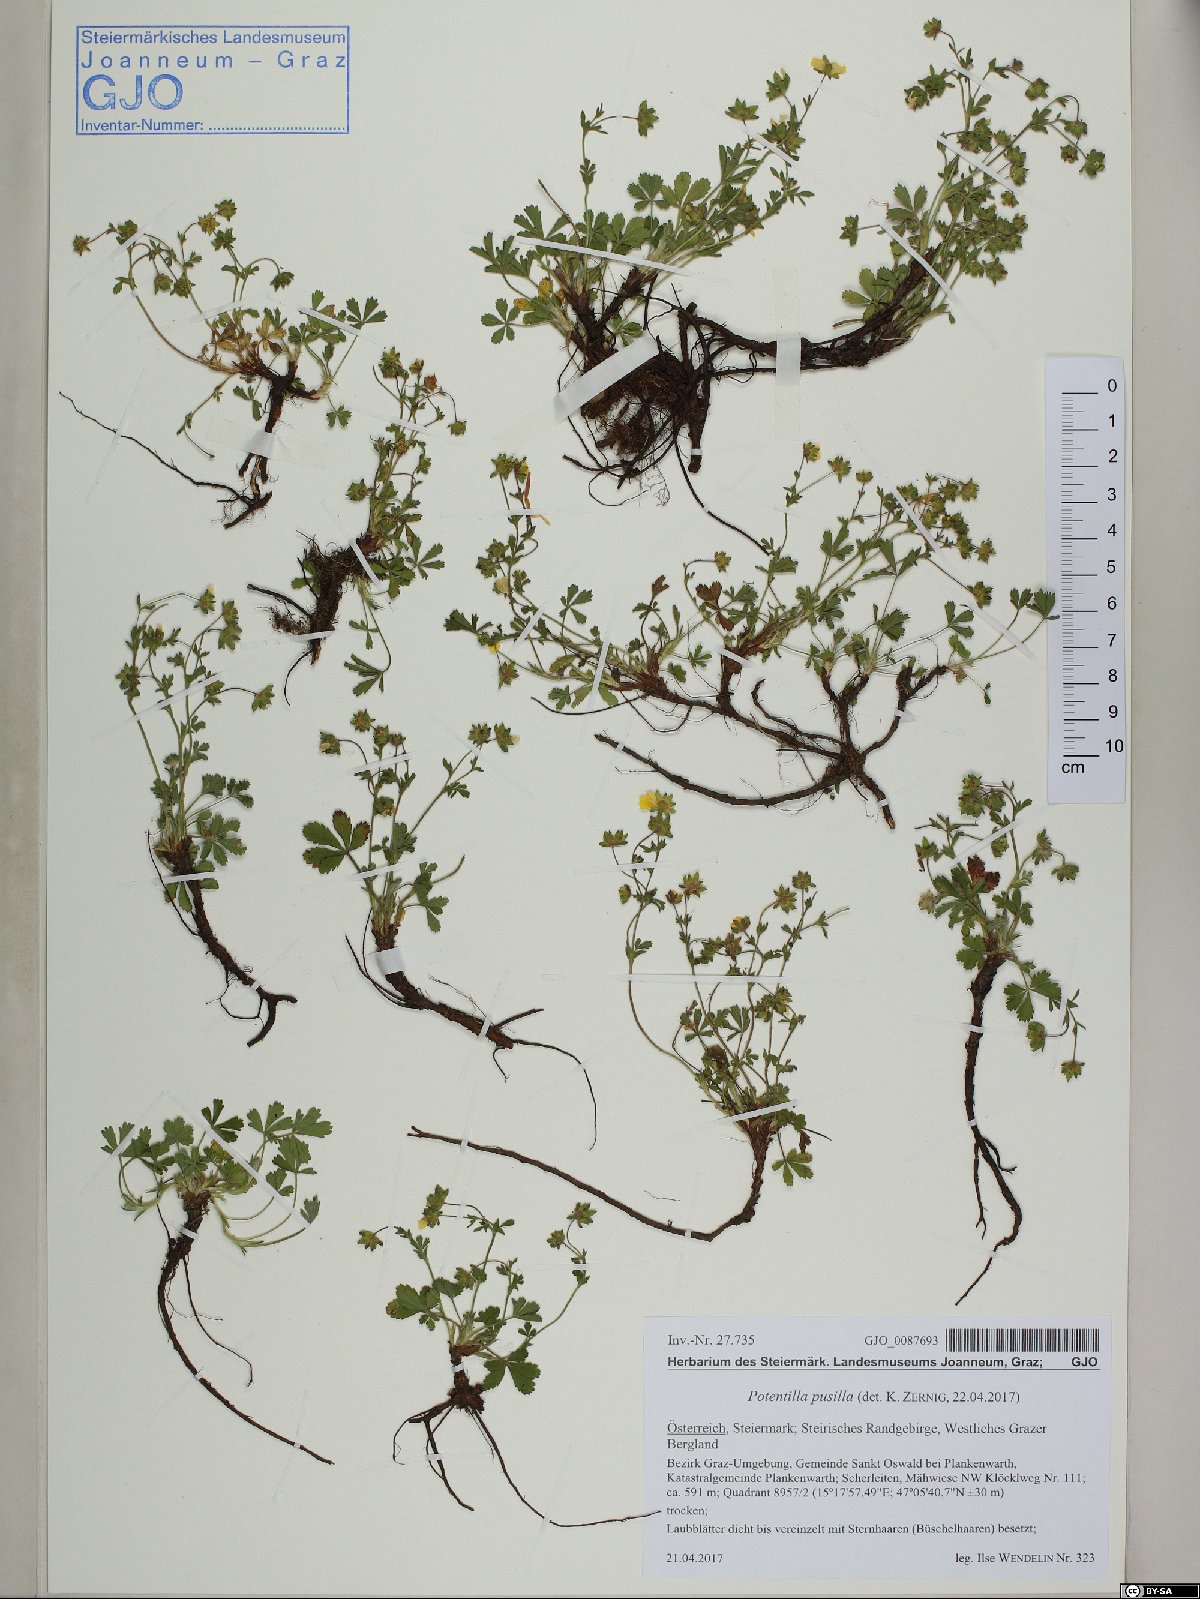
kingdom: Plantae
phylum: Tracheophyta
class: Magnoliopsida
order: Rosales
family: Rosaceae
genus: Potentilla
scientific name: Potentilla pusilla
